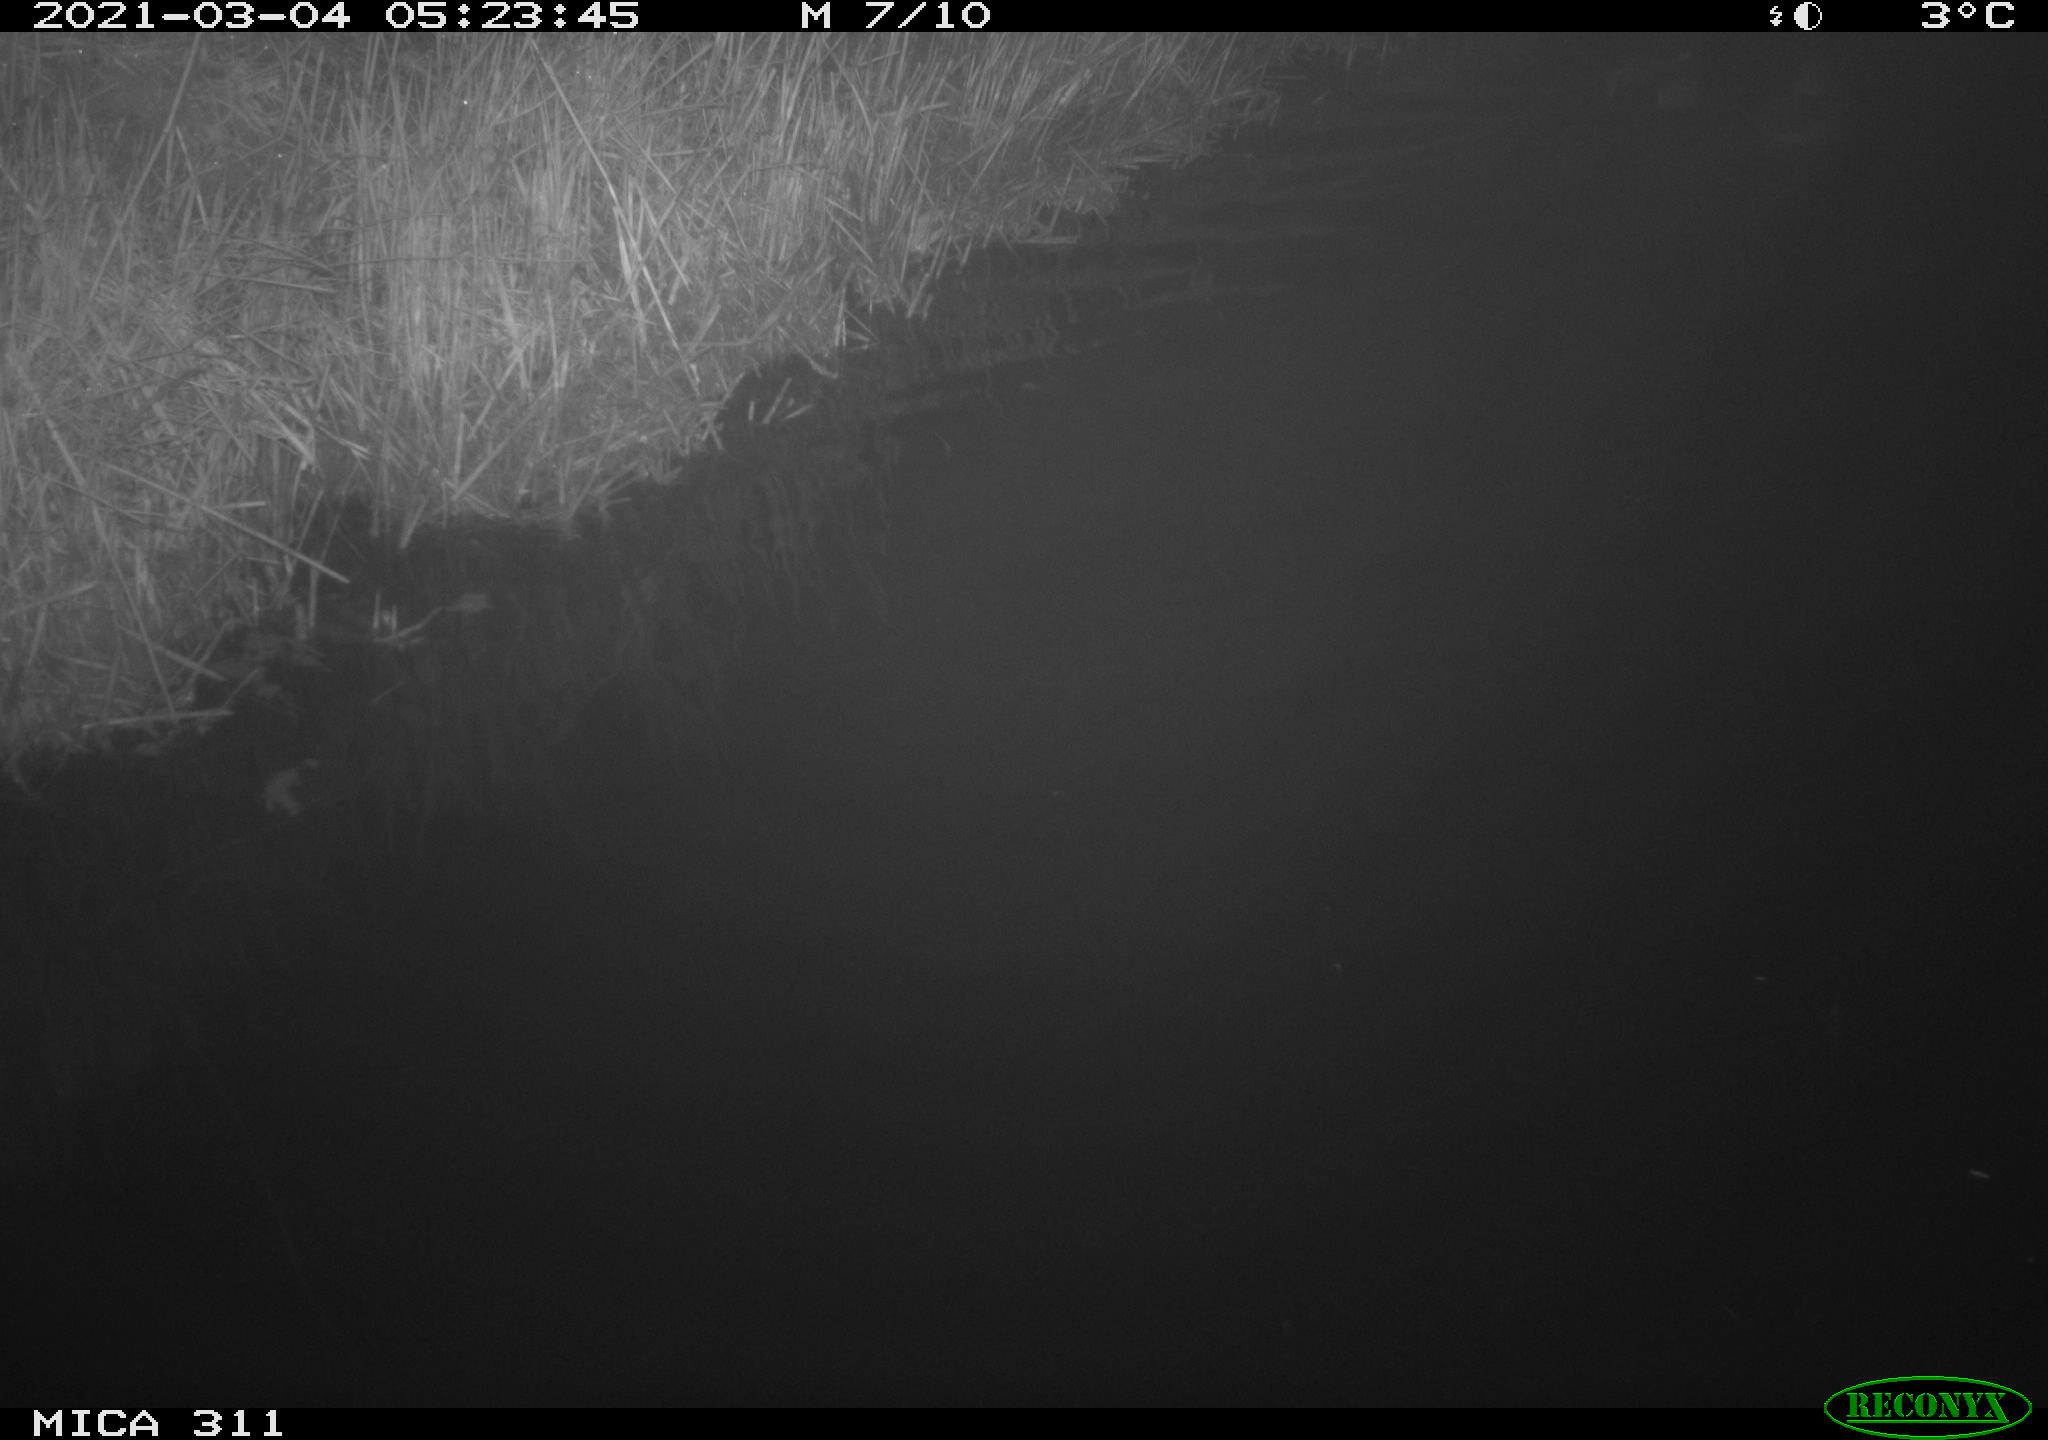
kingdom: Animalia
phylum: Chordata
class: Aves
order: Anseriformes
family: Anatidae
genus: Anas
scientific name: Anas platyrhynchos
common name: Mallard
